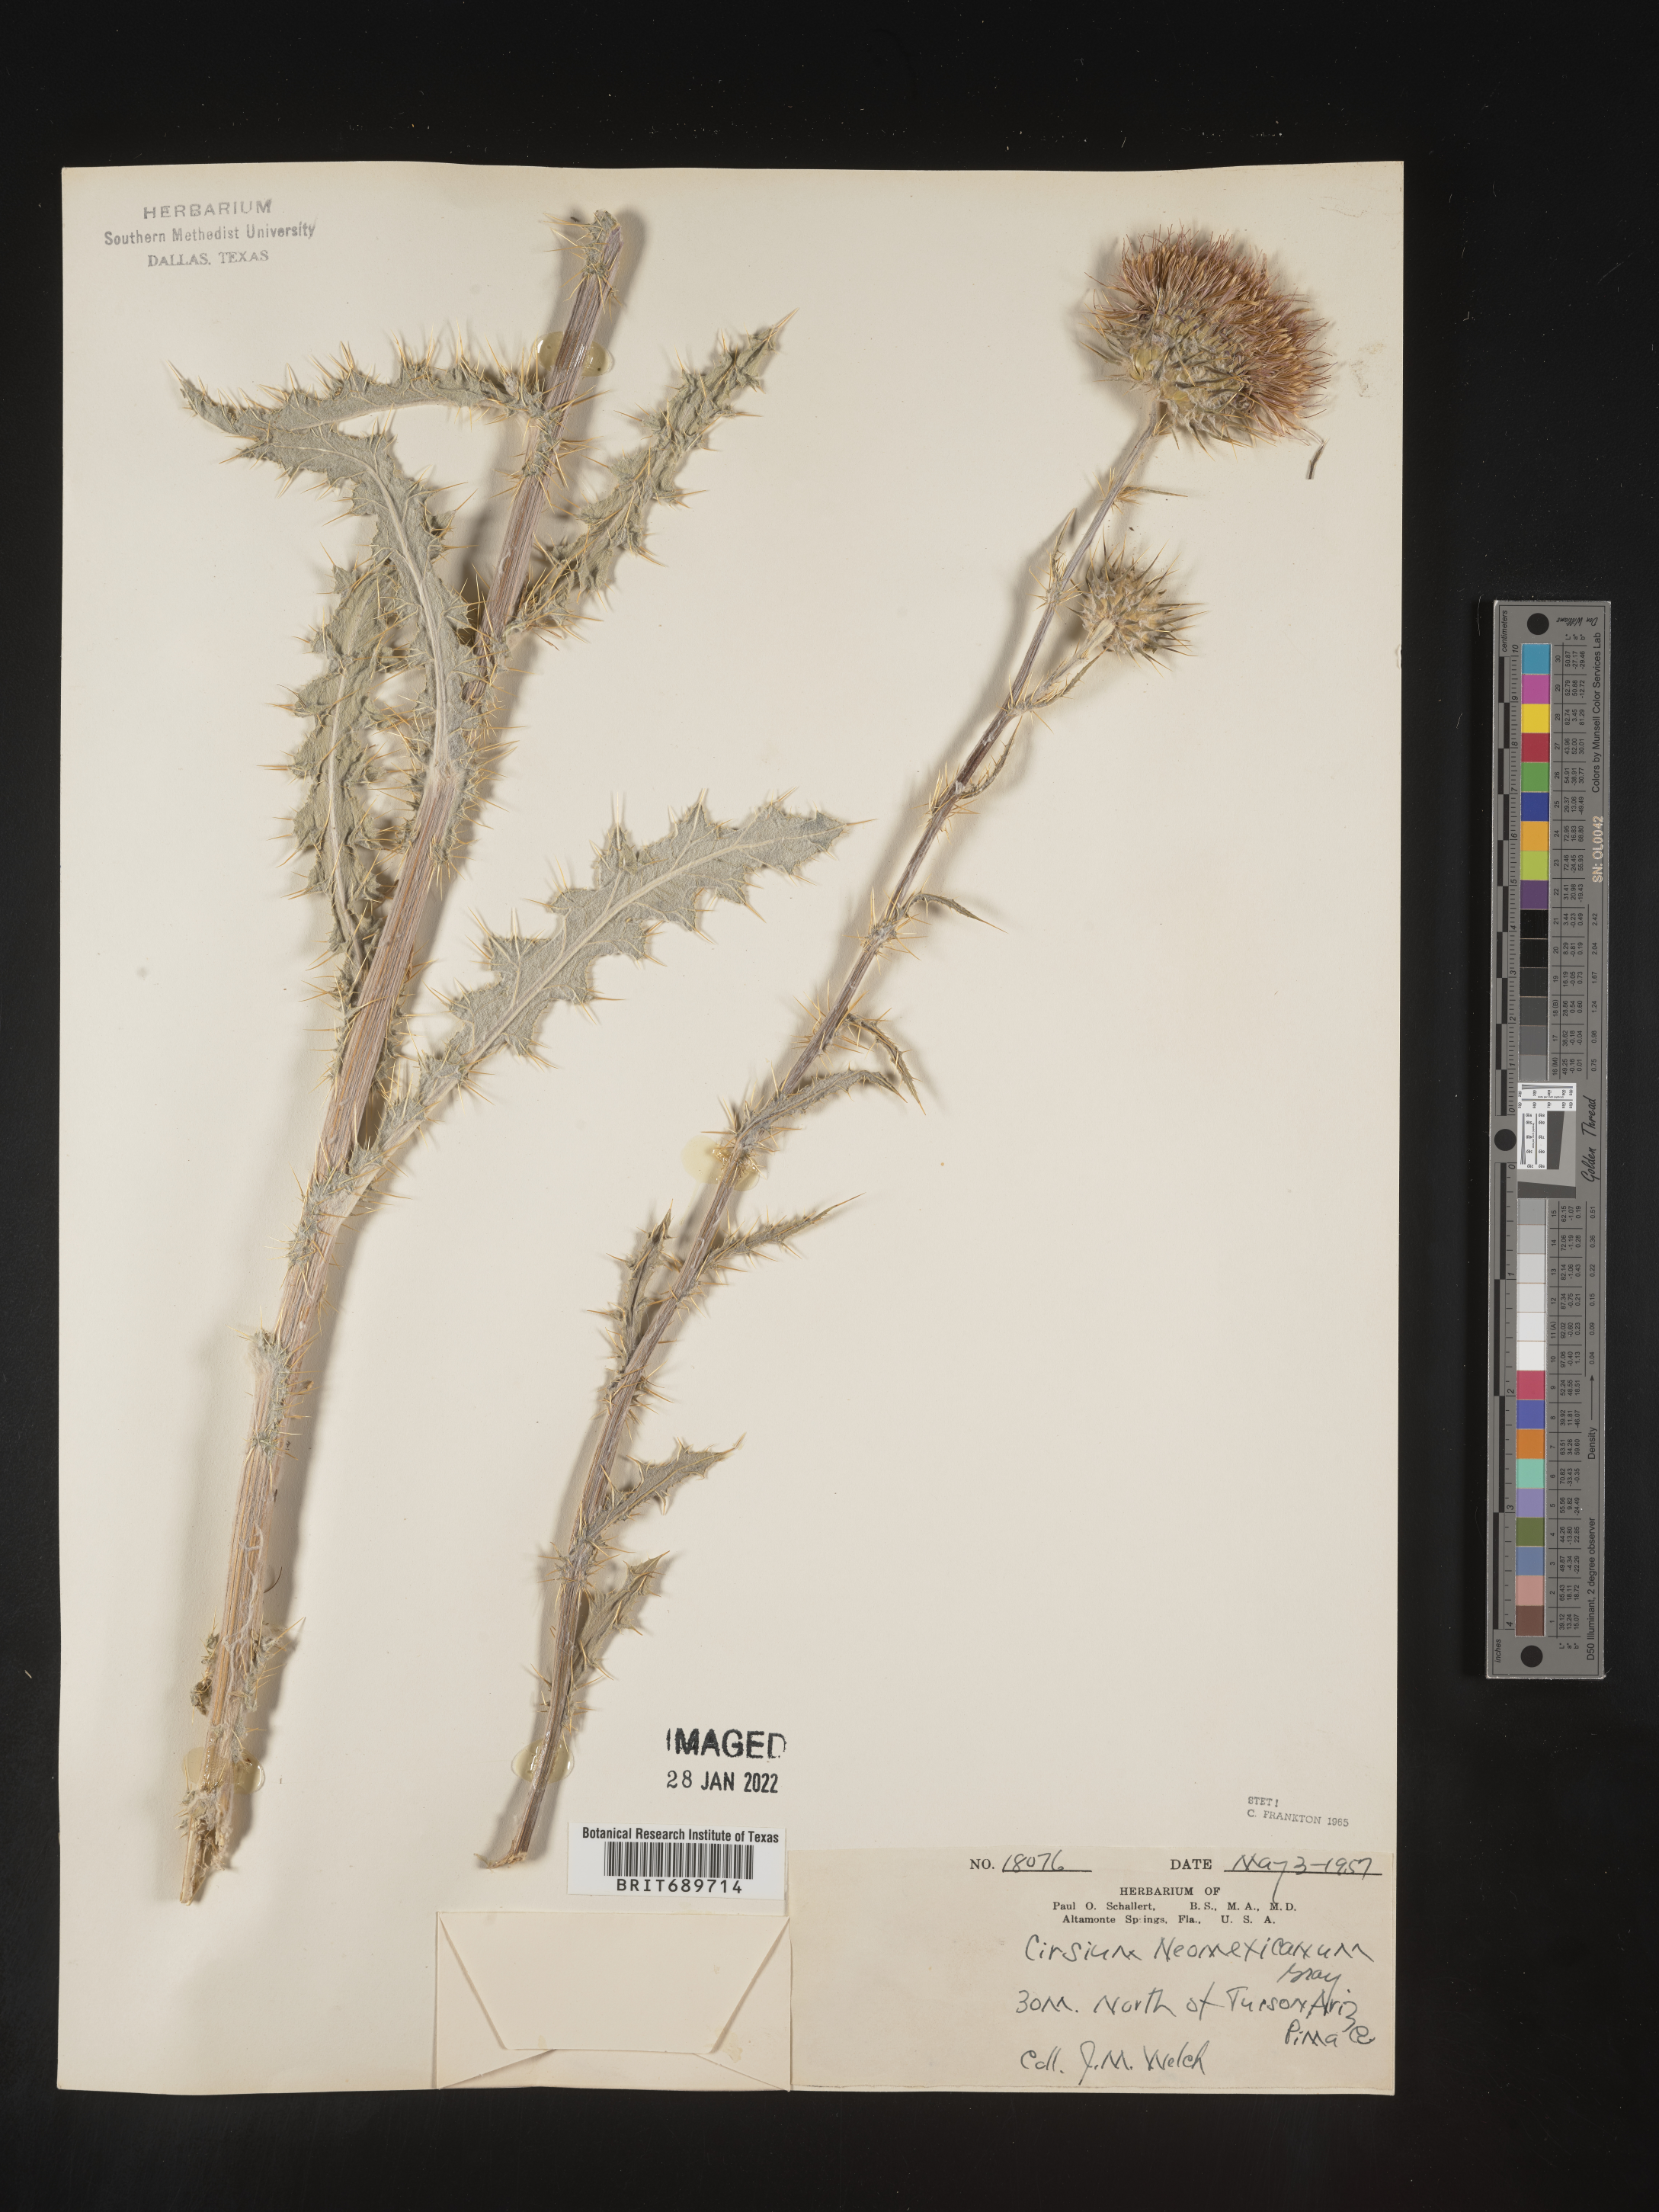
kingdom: Plantae
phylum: Tracheophyta
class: Magnoliopsida
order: Asterales
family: Asteraceae
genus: Cirsium
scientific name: Cirsium
